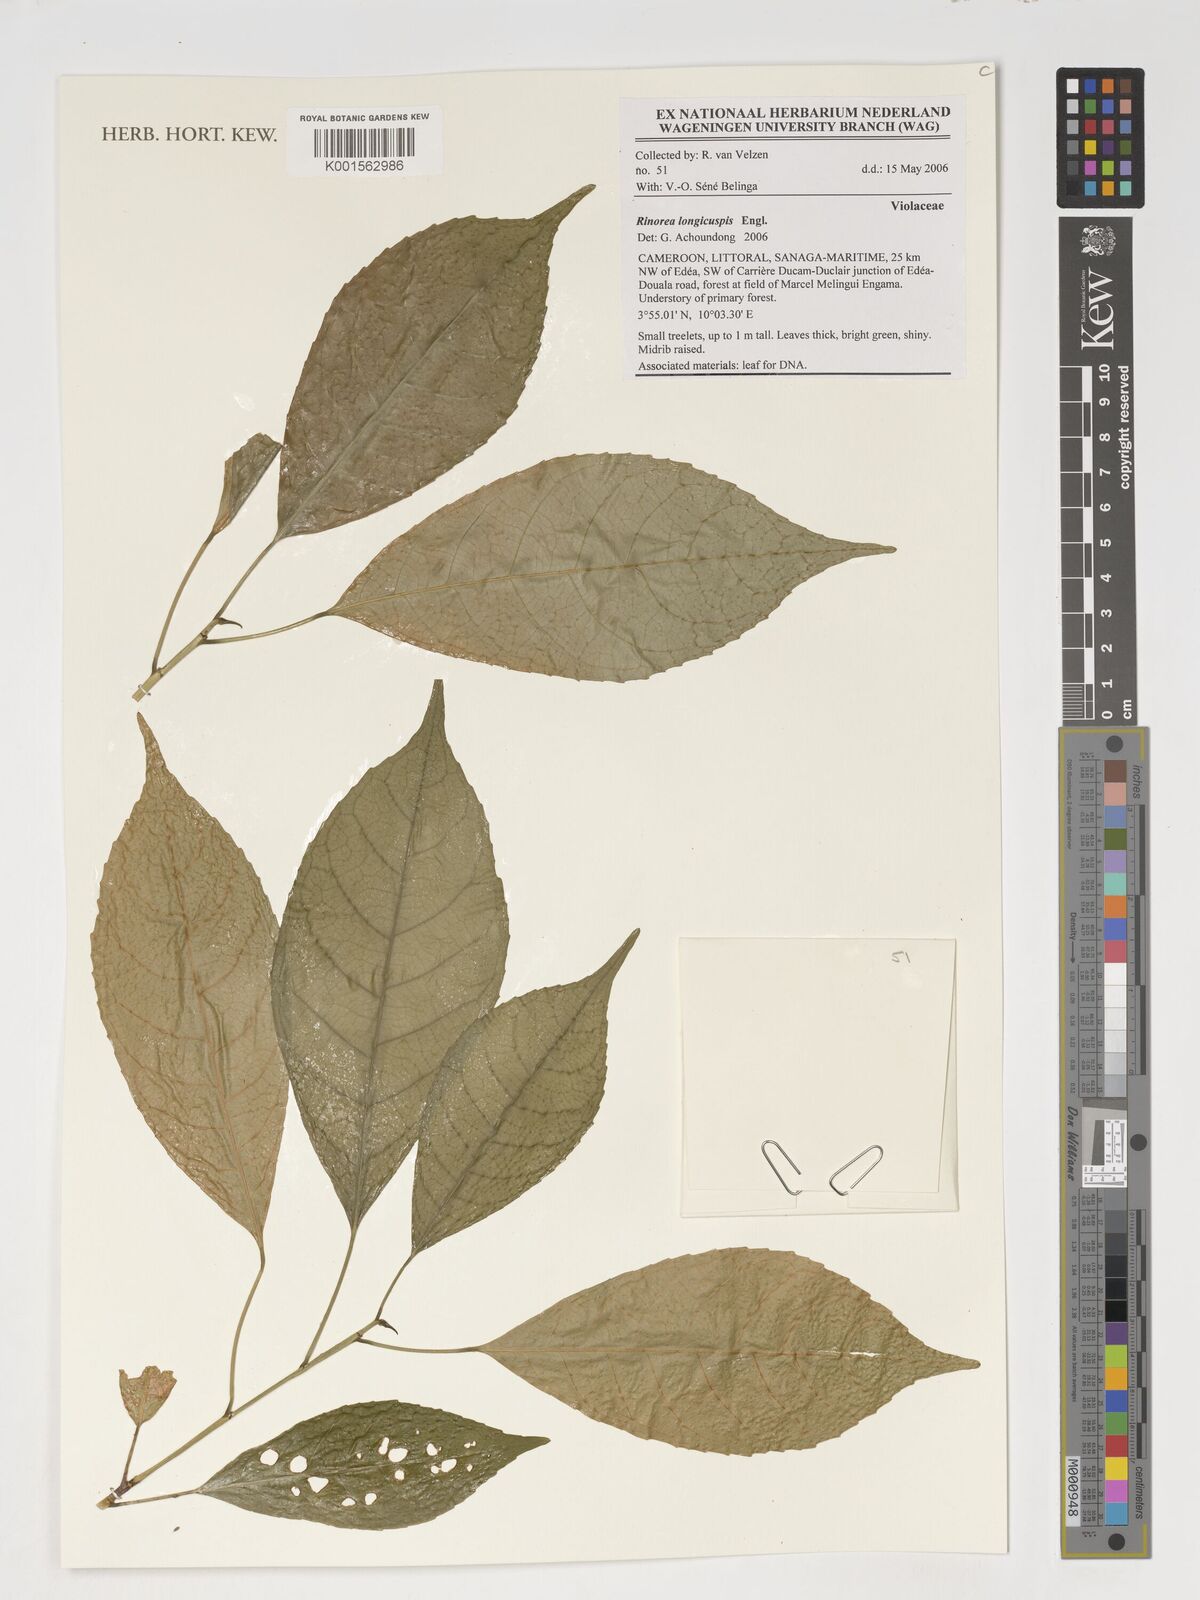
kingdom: Plantae
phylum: Tracheophyta
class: Magnoliopsida
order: Malpighiales
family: Violaceae
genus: Rinorea
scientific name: Rinorea welwitschii
